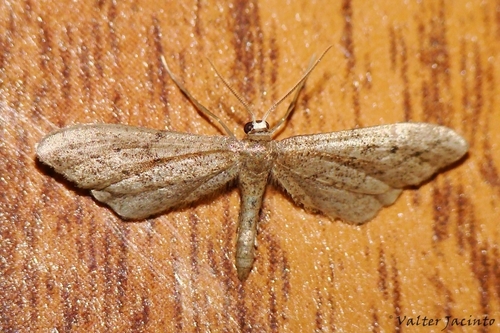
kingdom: Animalia
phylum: Arthropoda
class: Insecta
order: Lepidoptera
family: Geometridae
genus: Idaea
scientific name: Idaea carvalhoi
